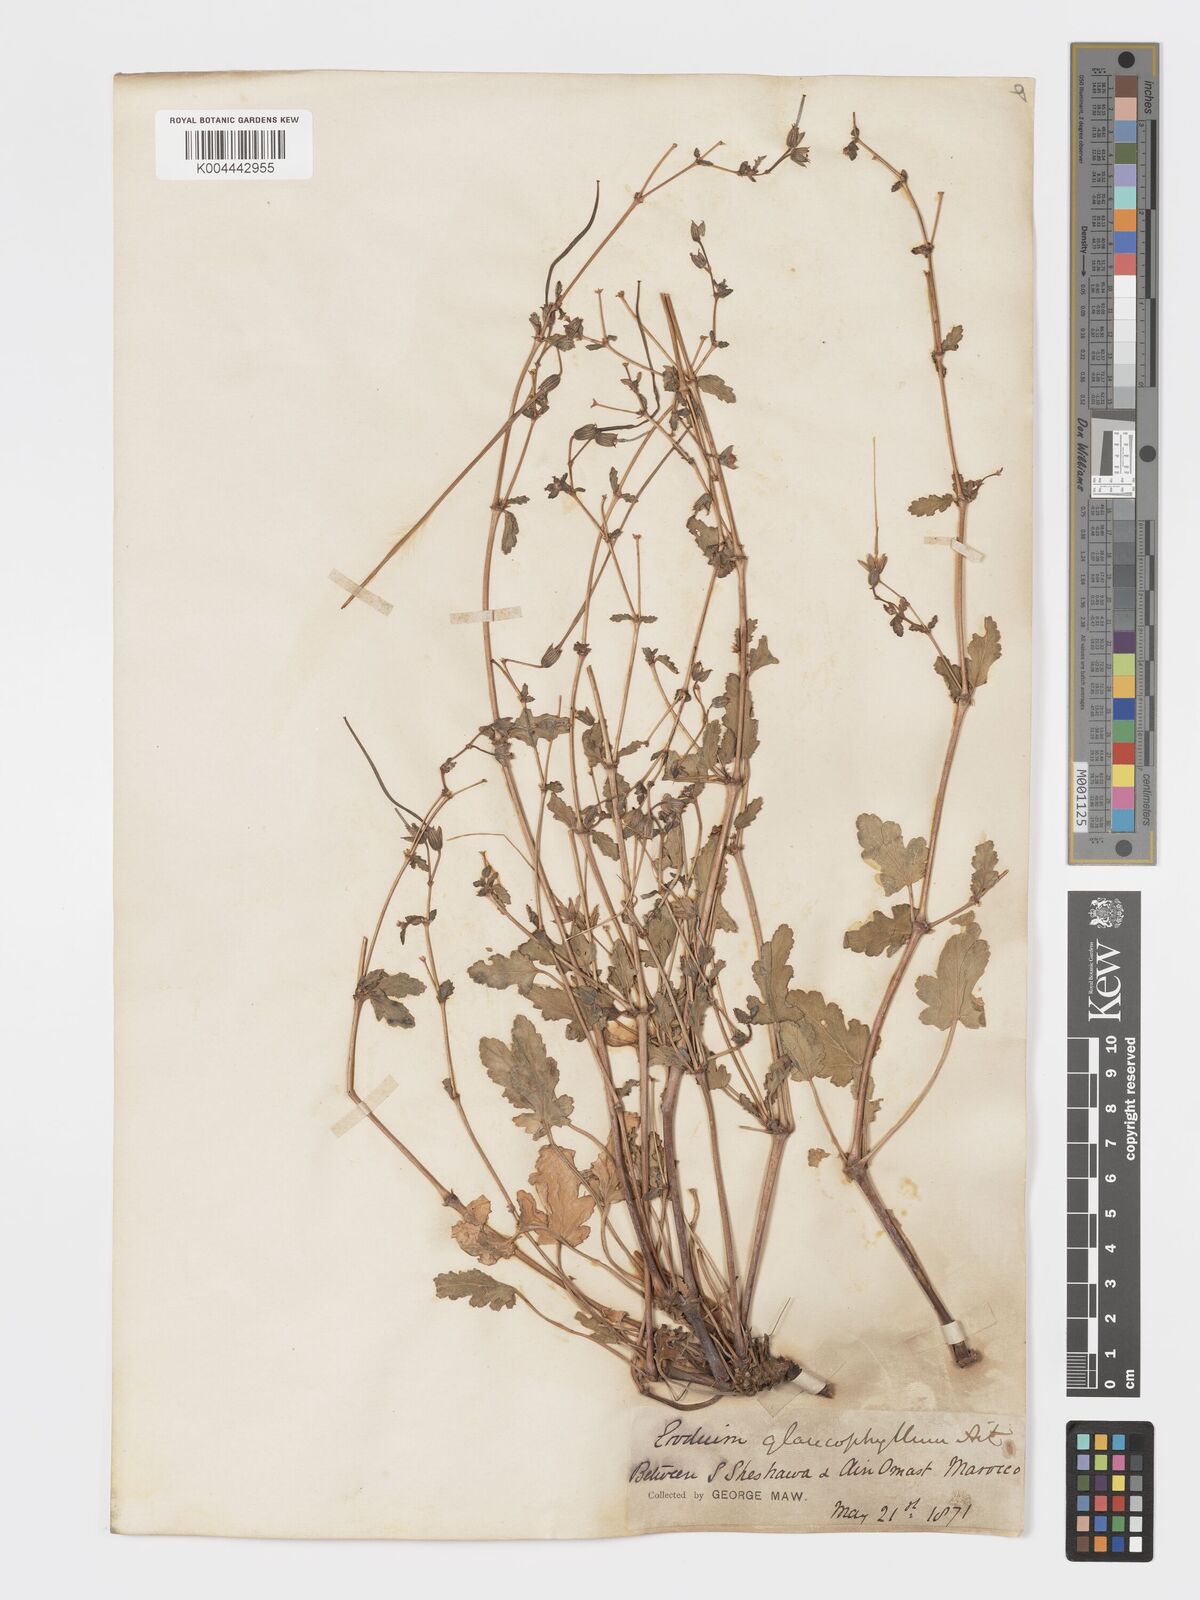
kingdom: Plantae
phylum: Tracheophyta
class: Magnoliopsida
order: Geraniales
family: Geraniaceae
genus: Erodium
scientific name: Erodium glaucophyllum
